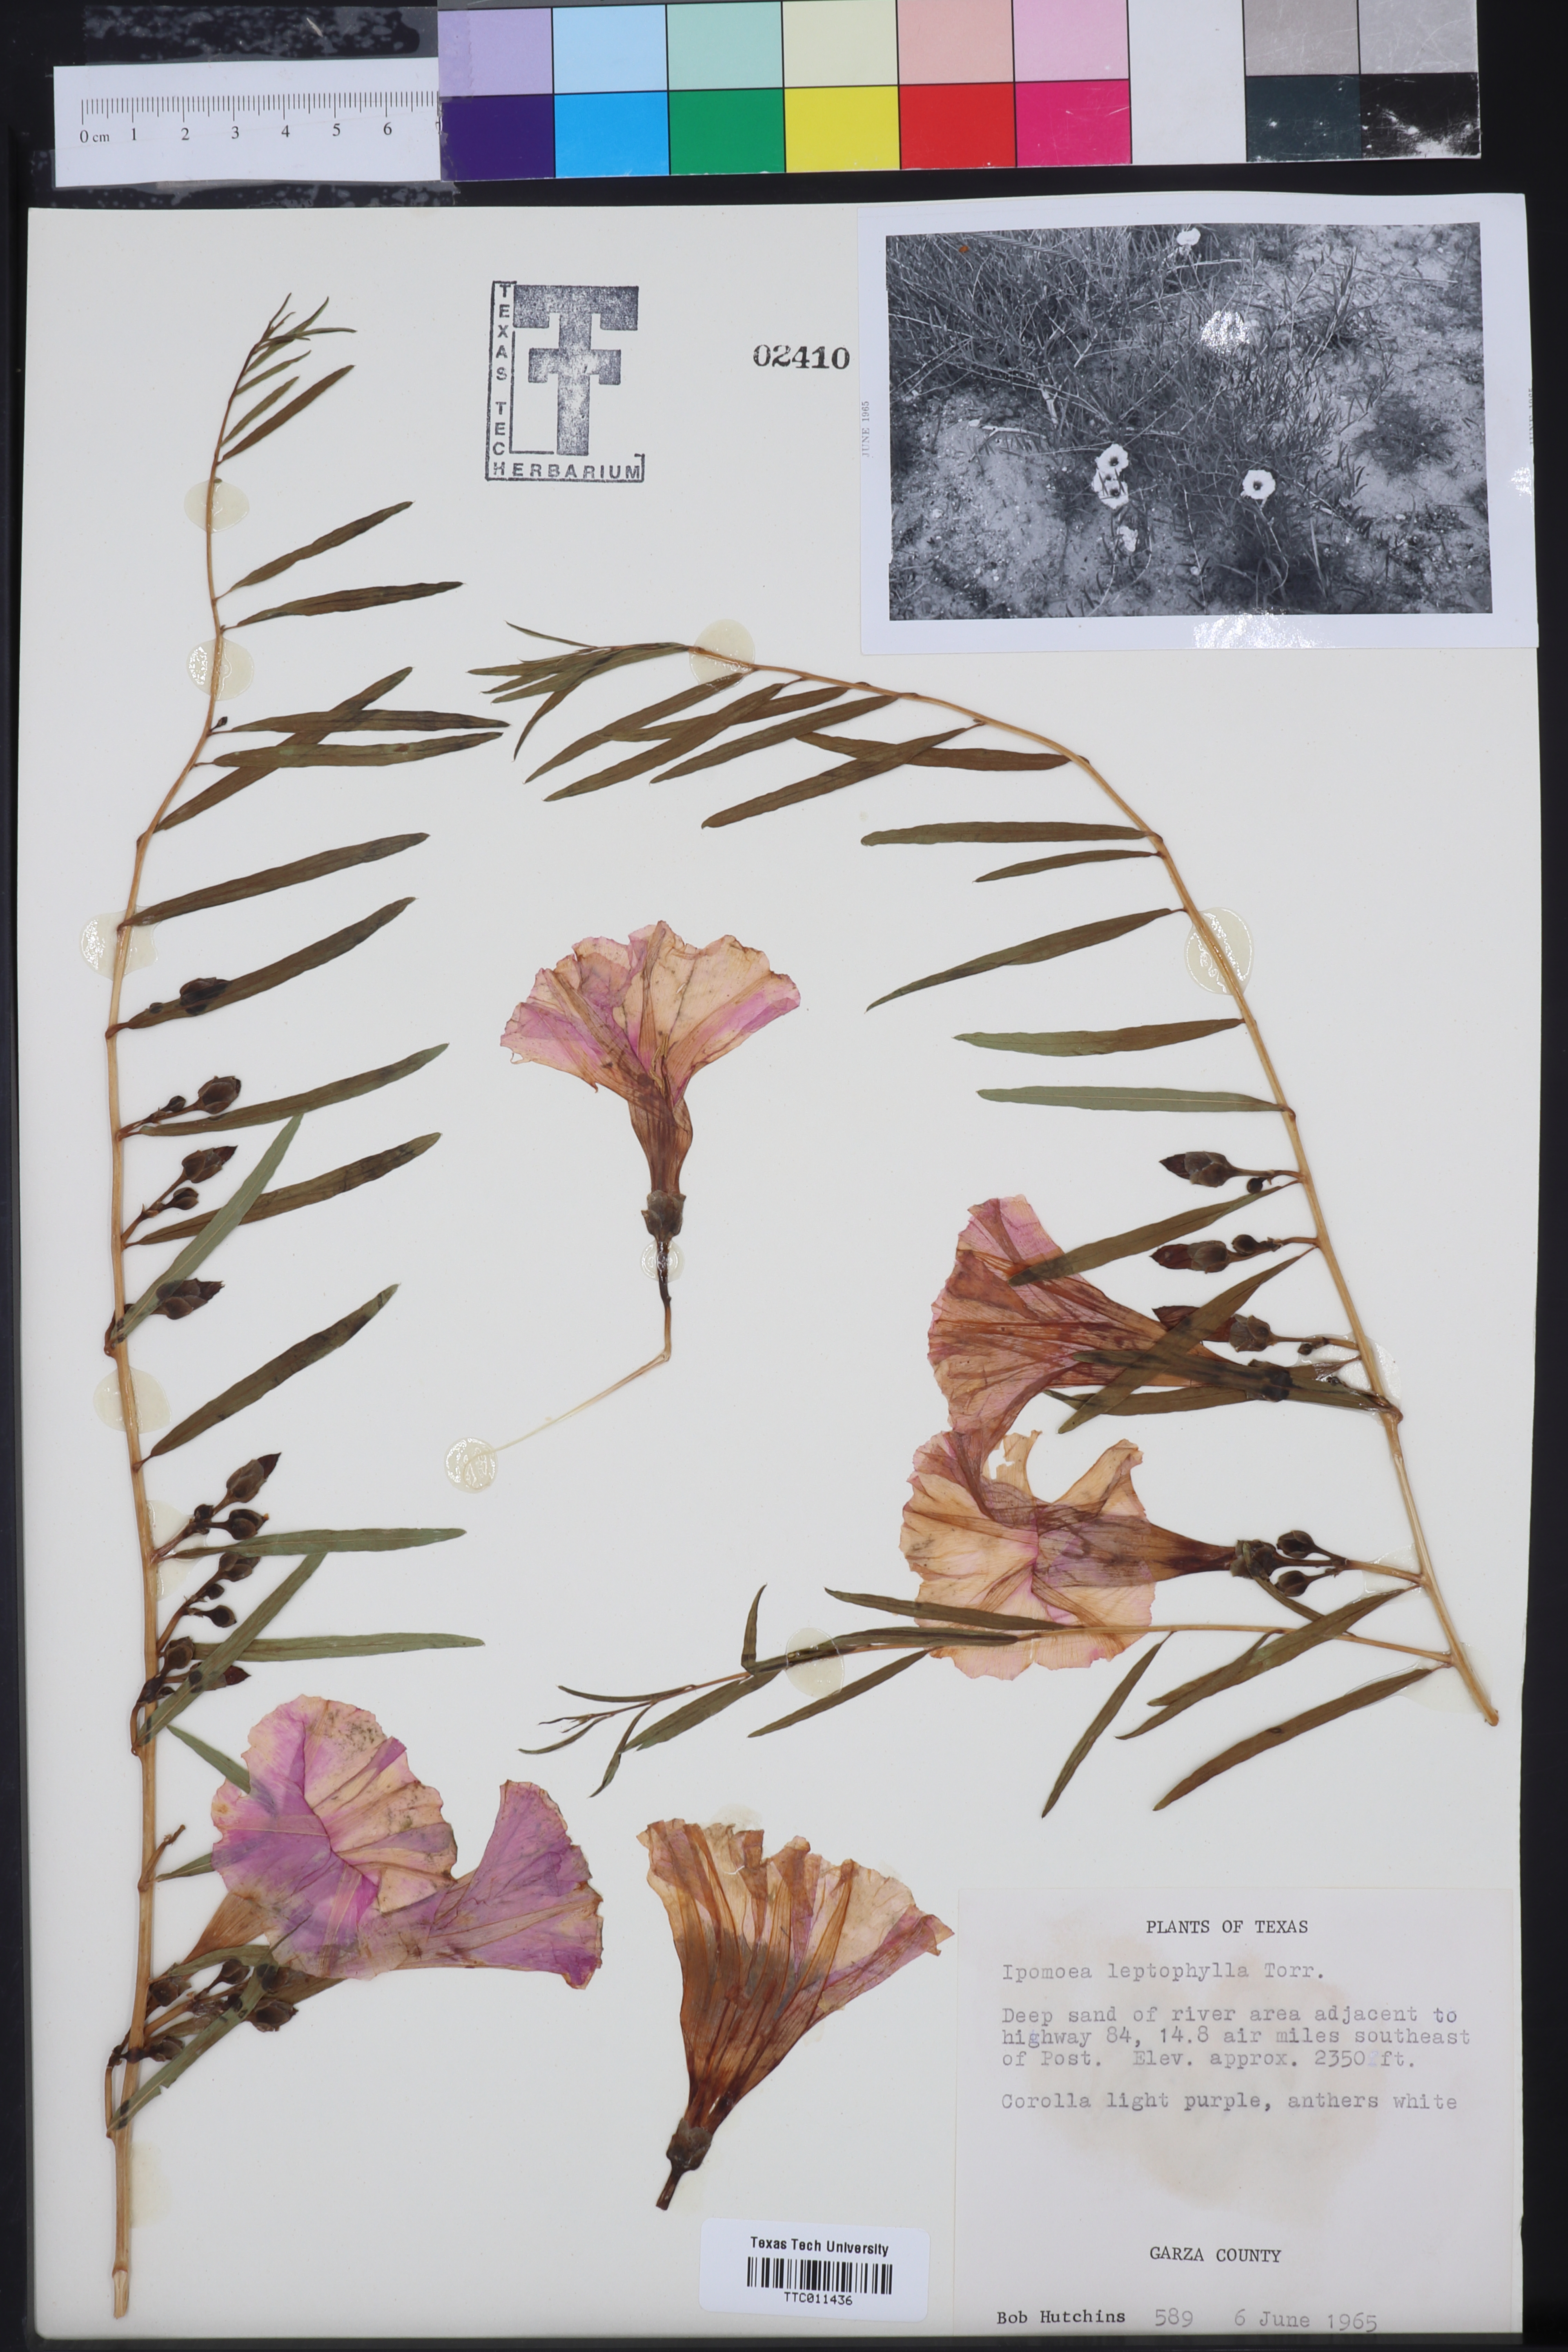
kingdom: Plantae
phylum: Tracheophyta
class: Magnoliopsida
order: Solanales
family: Convolvulaceae
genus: Ipomoea
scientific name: Ipomoea leptophylla
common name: Bush moonflower
